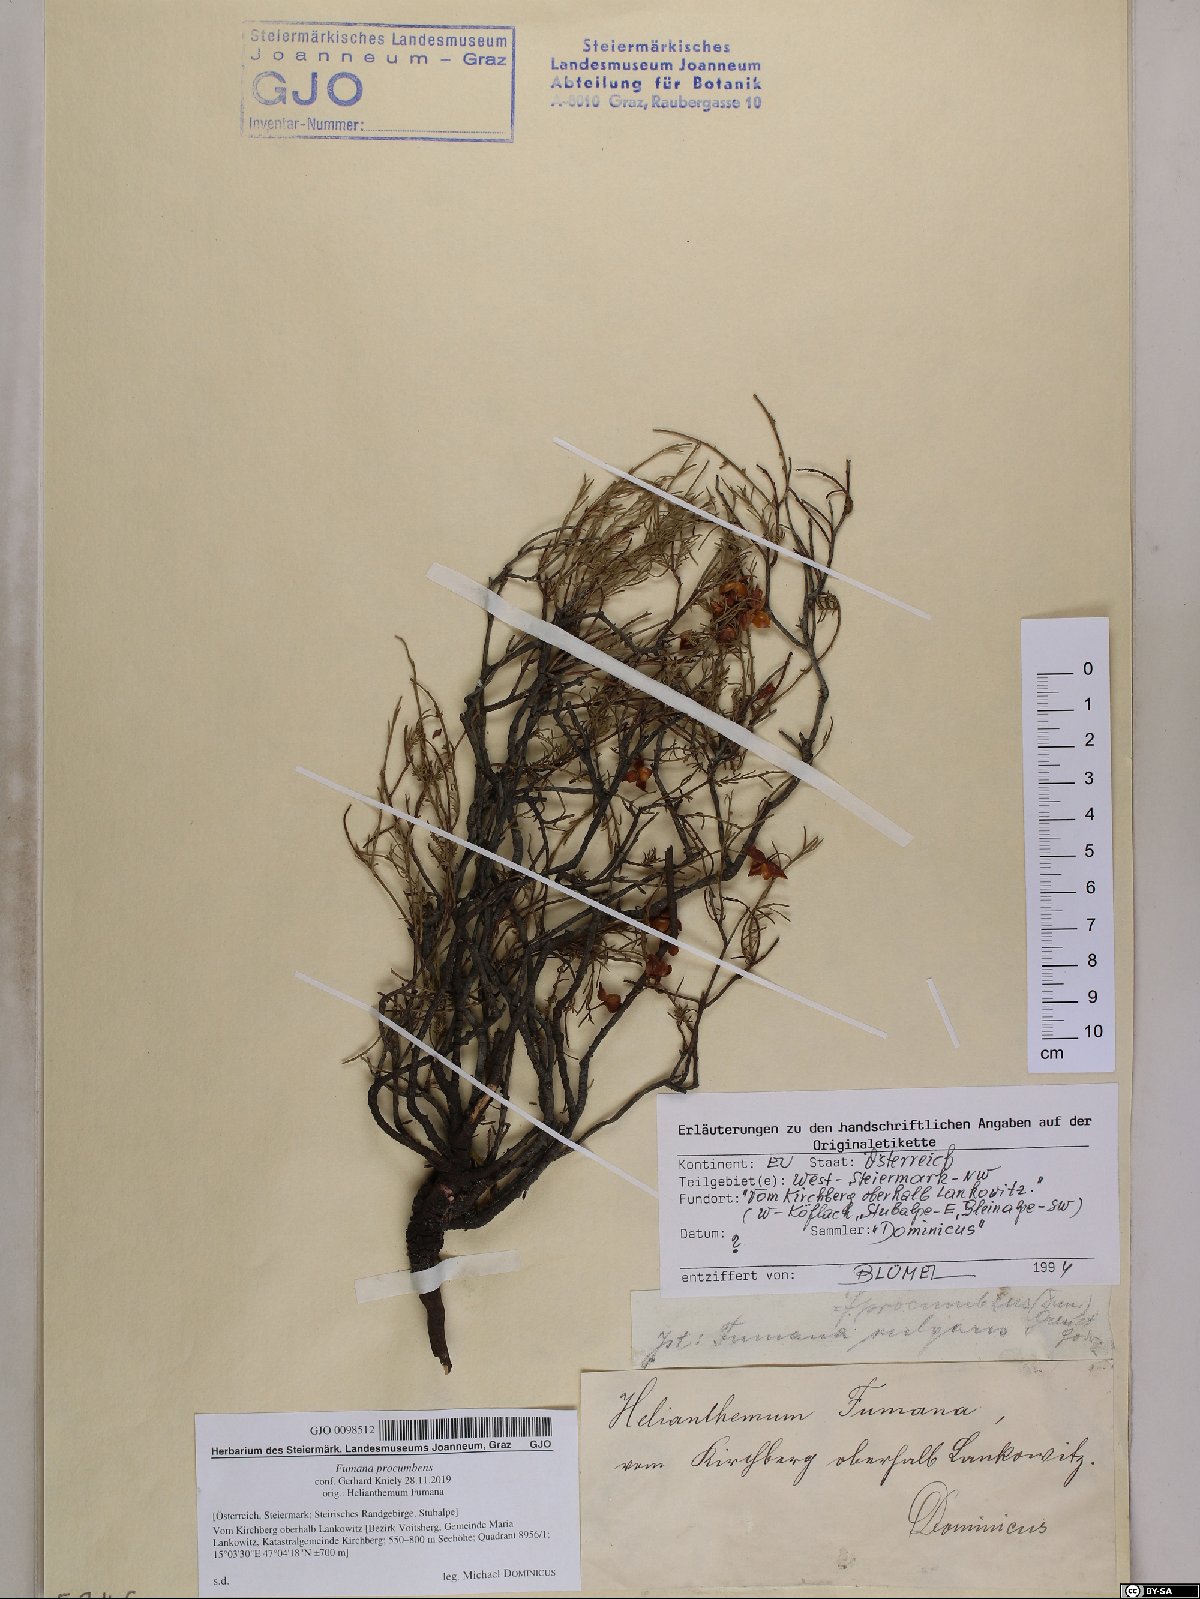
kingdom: Plantae
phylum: Tracheophyta
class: Magnoliopsida
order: Malvales
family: Cistaceae
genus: Fumana
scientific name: Fumana procumbens
